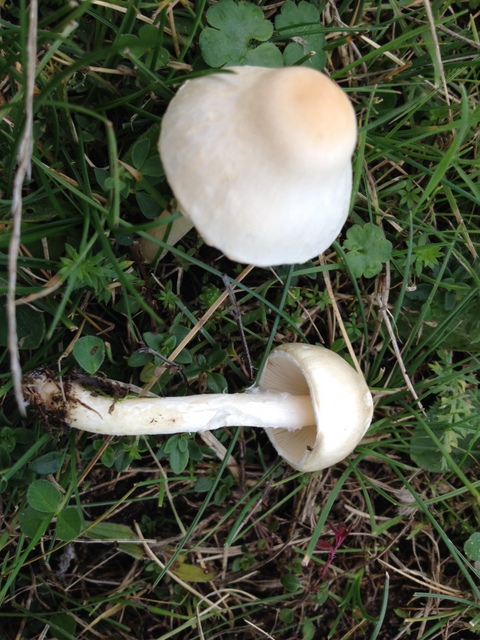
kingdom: Fungi
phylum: Basidiomycota
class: Agaricomycetes
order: Agaricales
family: Agaricaceae
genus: Lepiota
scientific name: Lepiota erminea
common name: hvid parasolhat
